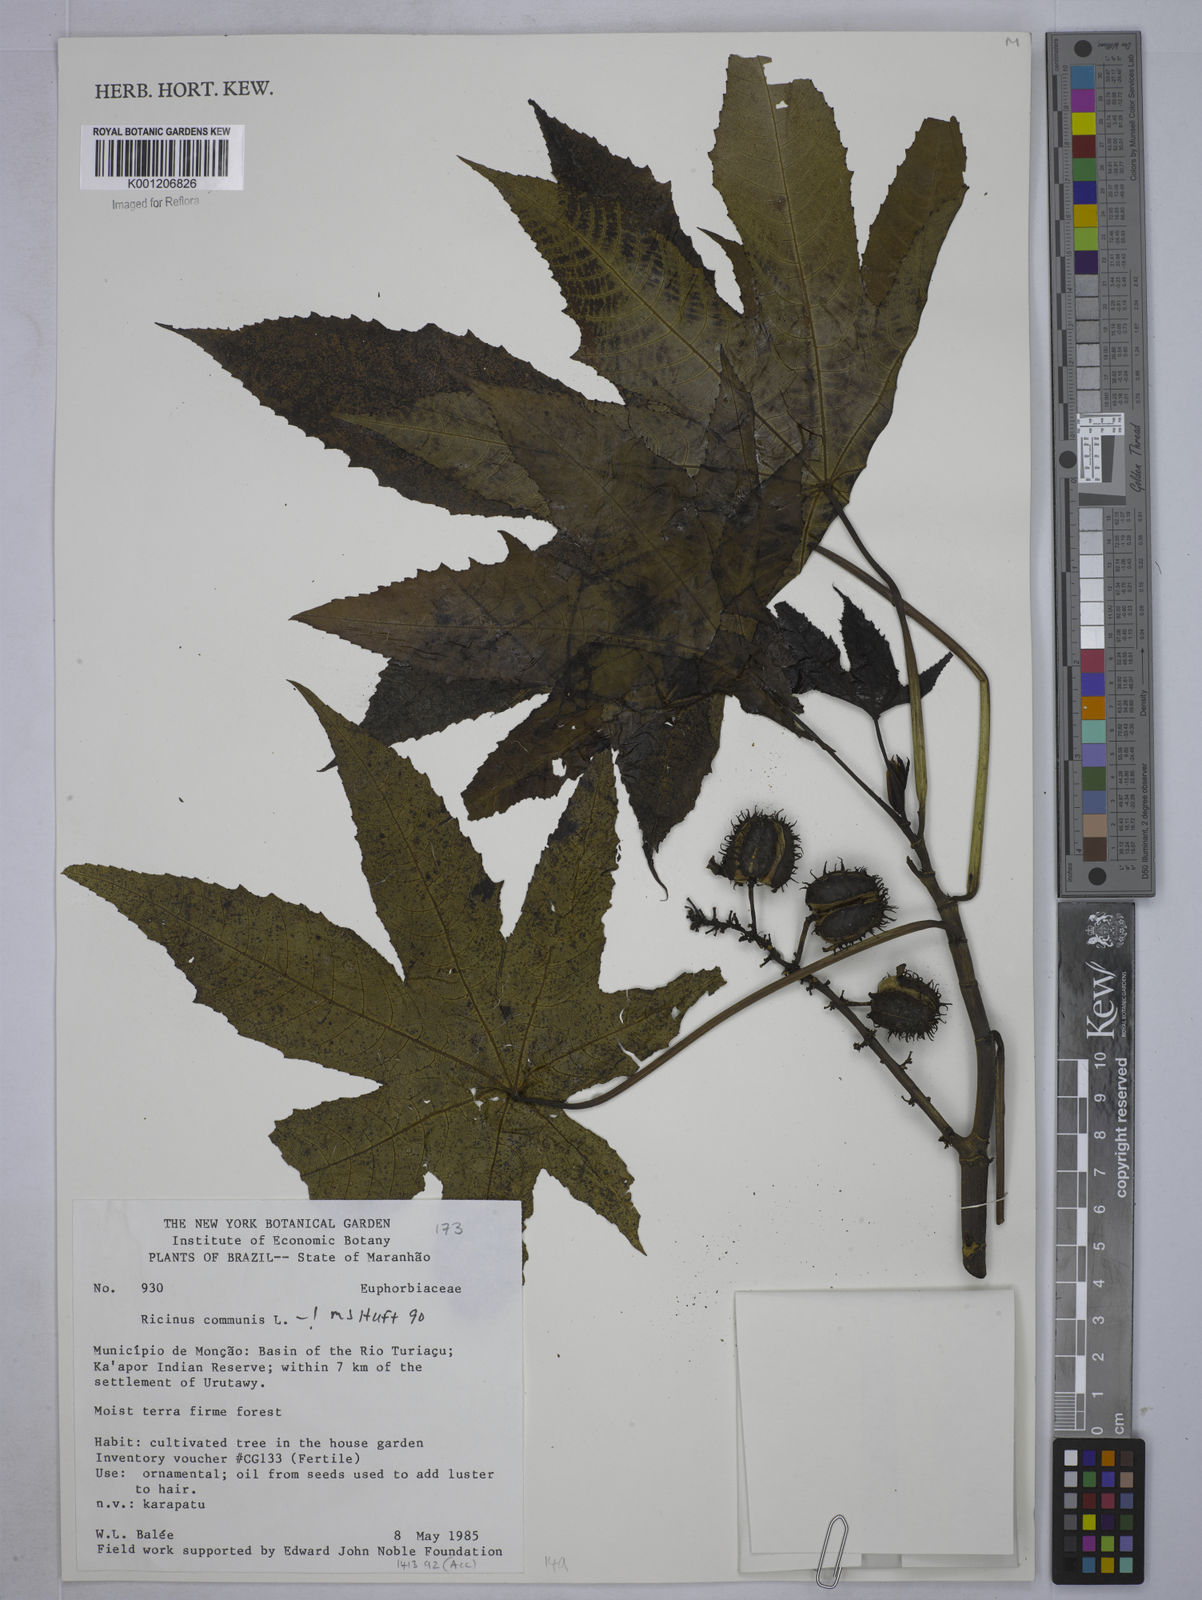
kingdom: Plantae
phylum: Tracheophyta
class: Magnoliopsida
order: Malpighiales
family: Euphorbiaceae
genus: Ricinus
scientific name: Ricinus communis
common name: Castor-oil-plant
